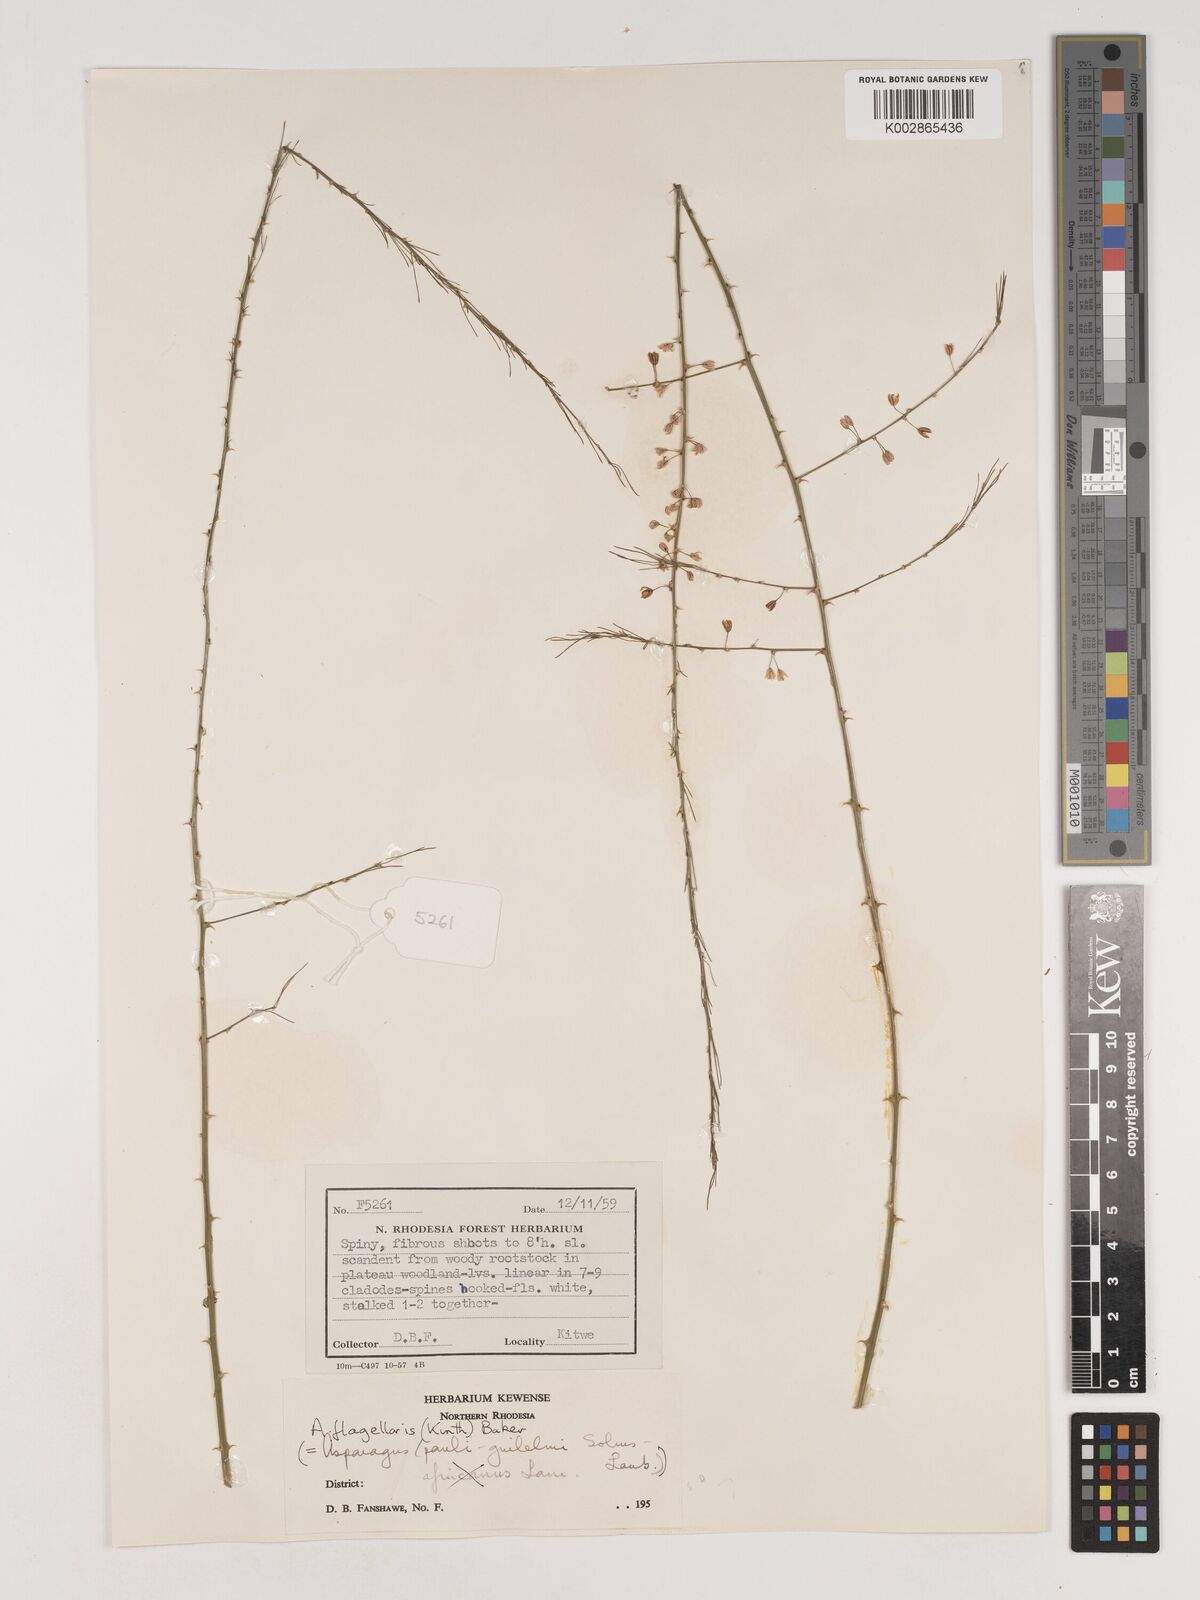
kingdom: Plantae
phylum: Tracheophyta
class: Liliopsida
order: Asparagales
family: Asparagaceae
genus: Asparagus
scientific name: Asparagus flagellaris
